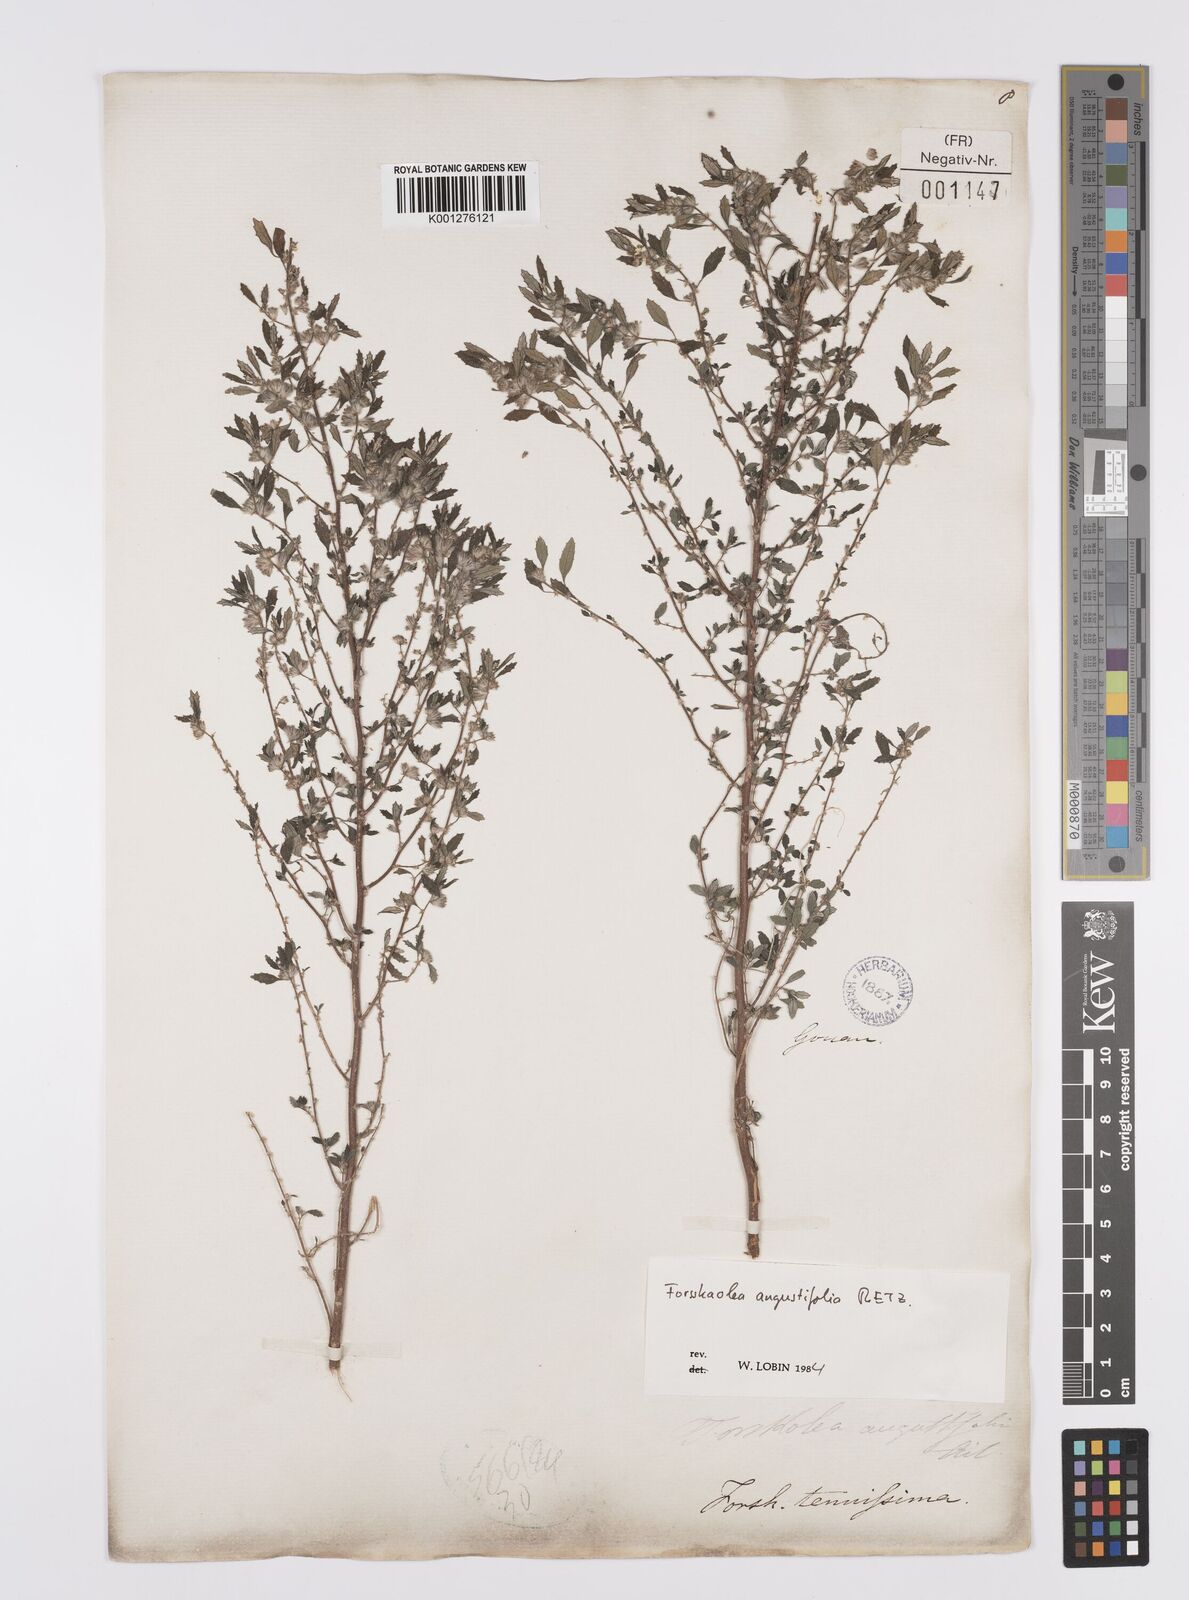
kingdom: Plantae
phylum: Tracheophyta
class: Magnoliopsida
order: Rosales
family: Urticaceae
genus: Forsskaolea
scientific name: Forsskaolea angustifolia
